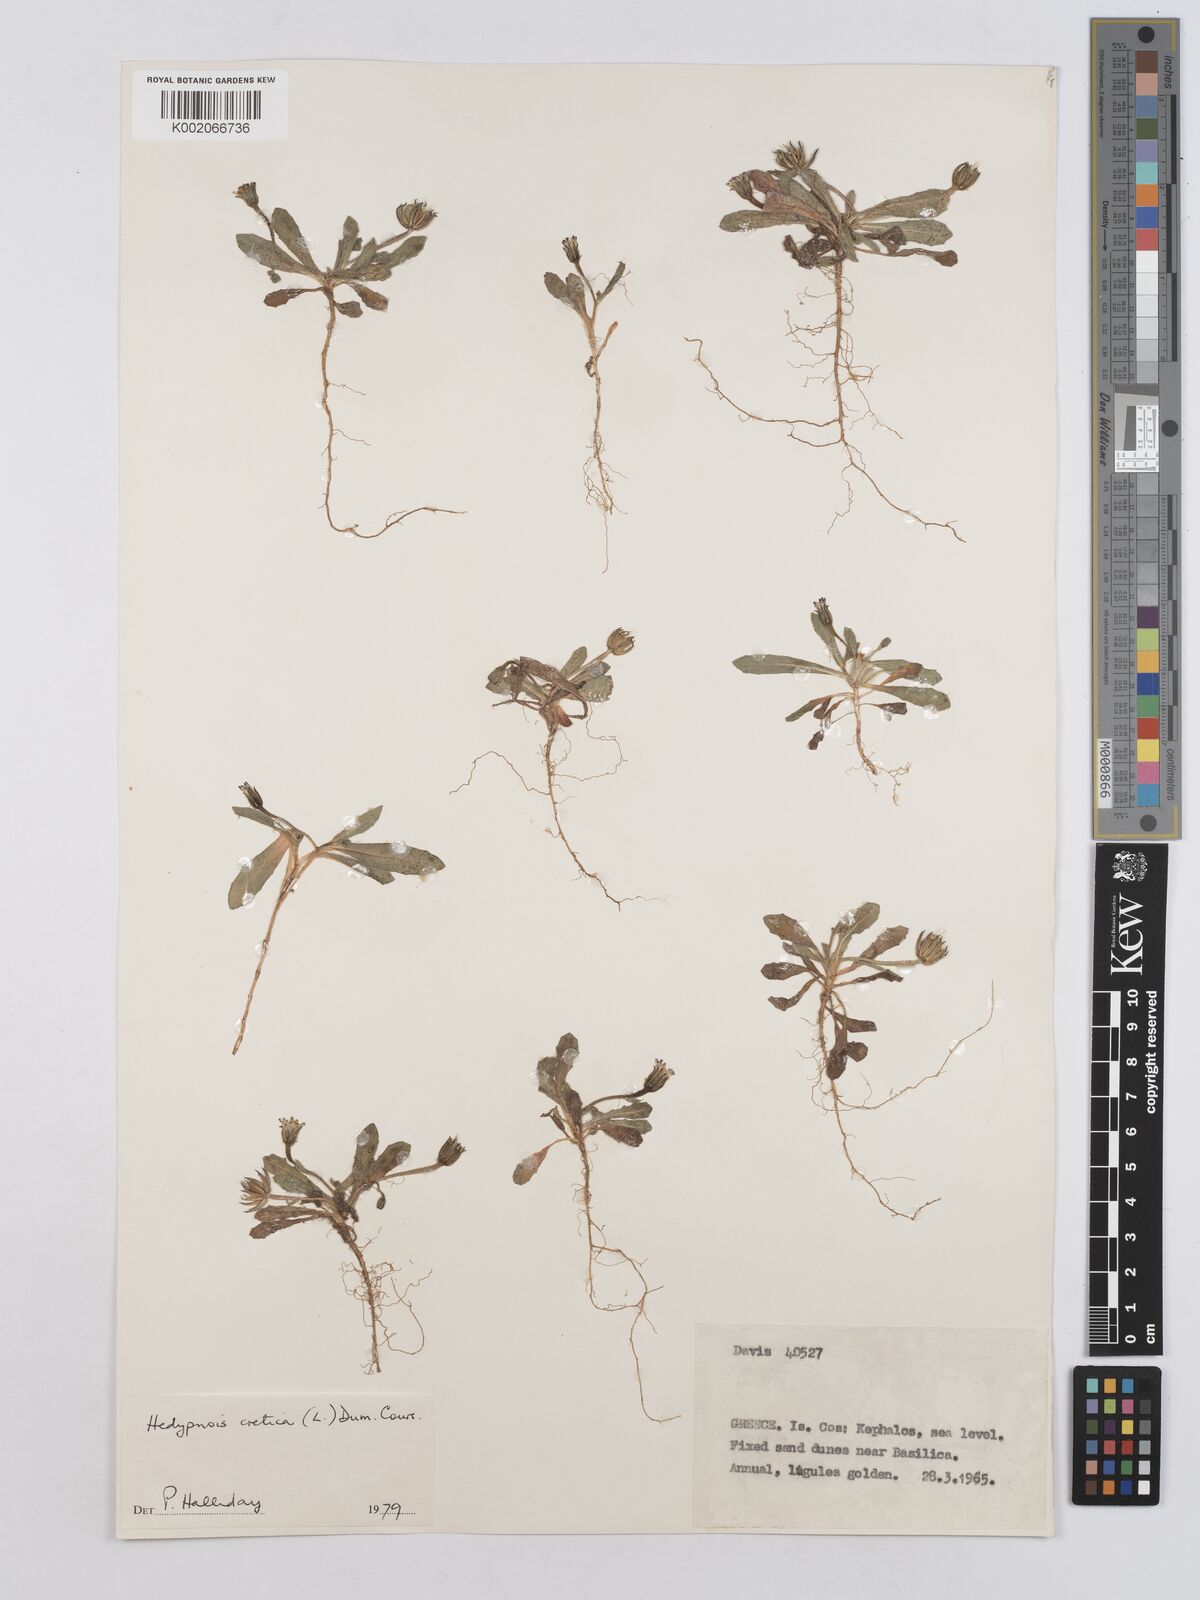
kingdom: Plantae
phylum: Tracheophyta
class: Magnoliopsida
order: Asterales
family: Asteraceae
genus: Hedypnois
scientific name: Hedypnois cretica
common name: Scaly hawkbit
